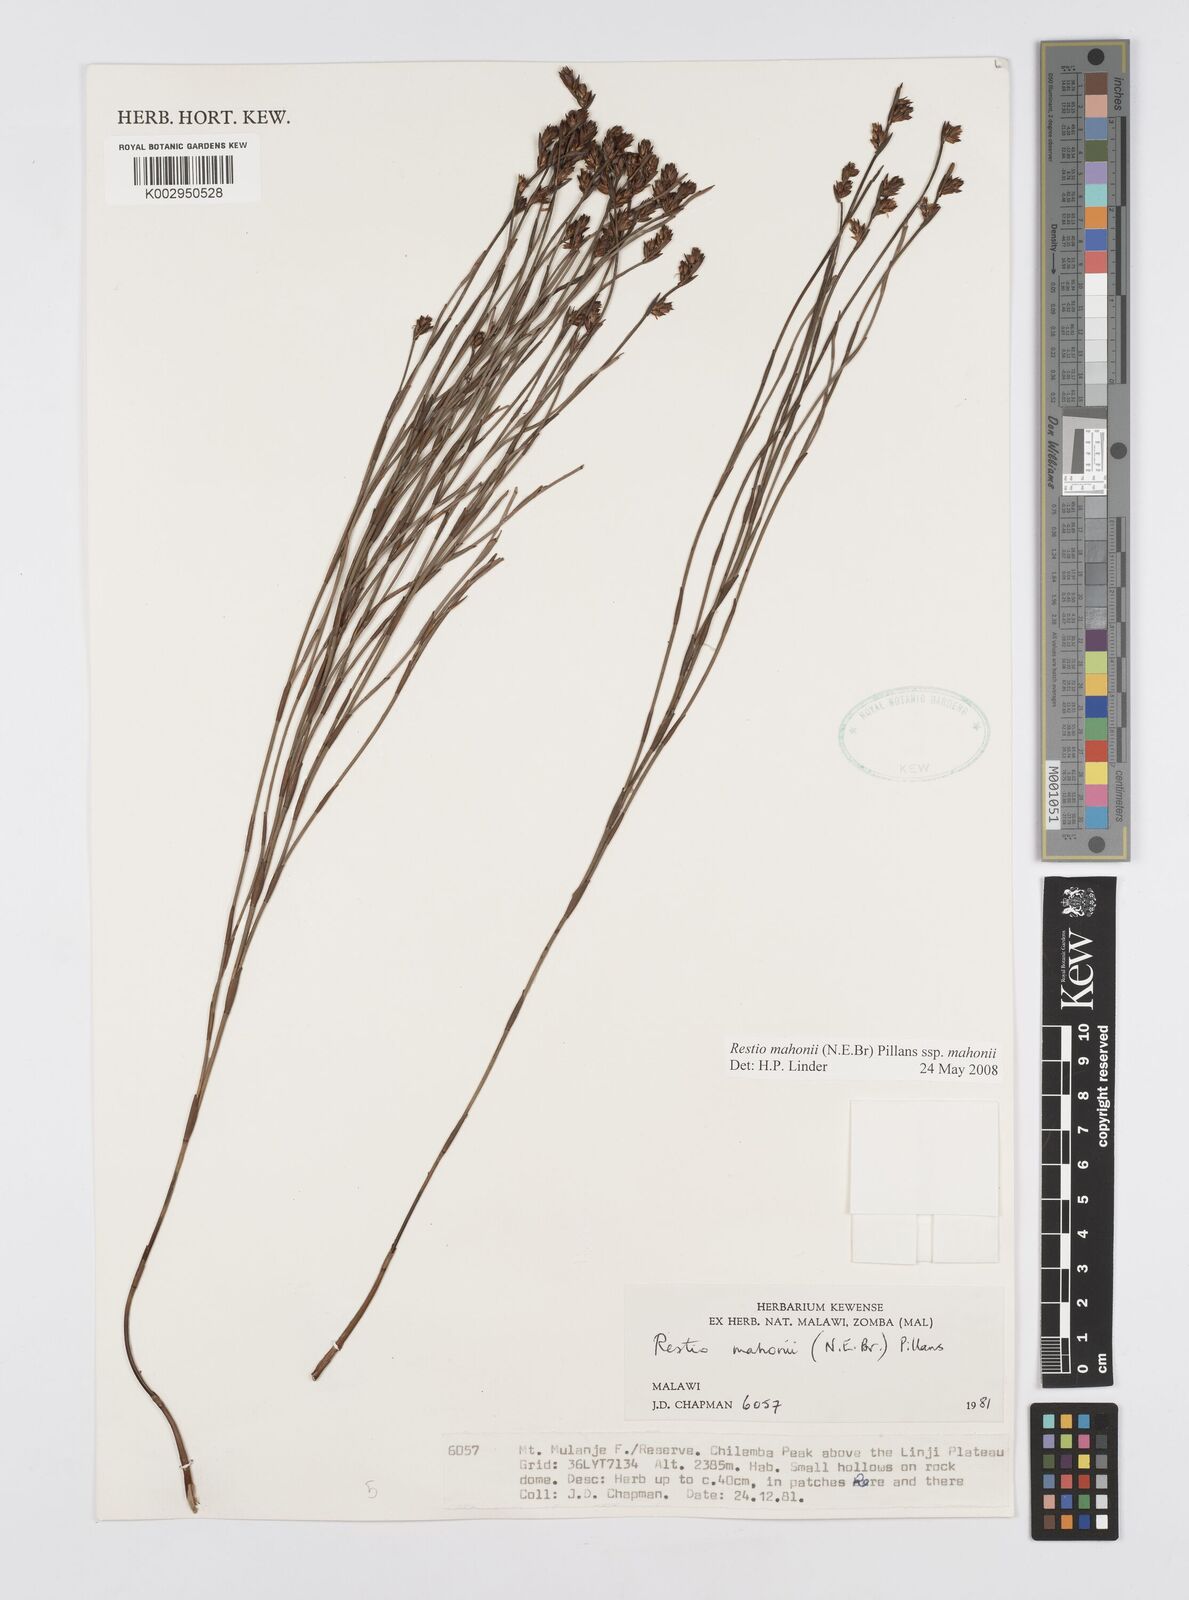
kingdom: Plantae
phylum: Tracheophyta
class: Liliopsida
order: Poales
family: Restionaceae
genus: Platycaulos
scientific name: Platycaulos mahonii
